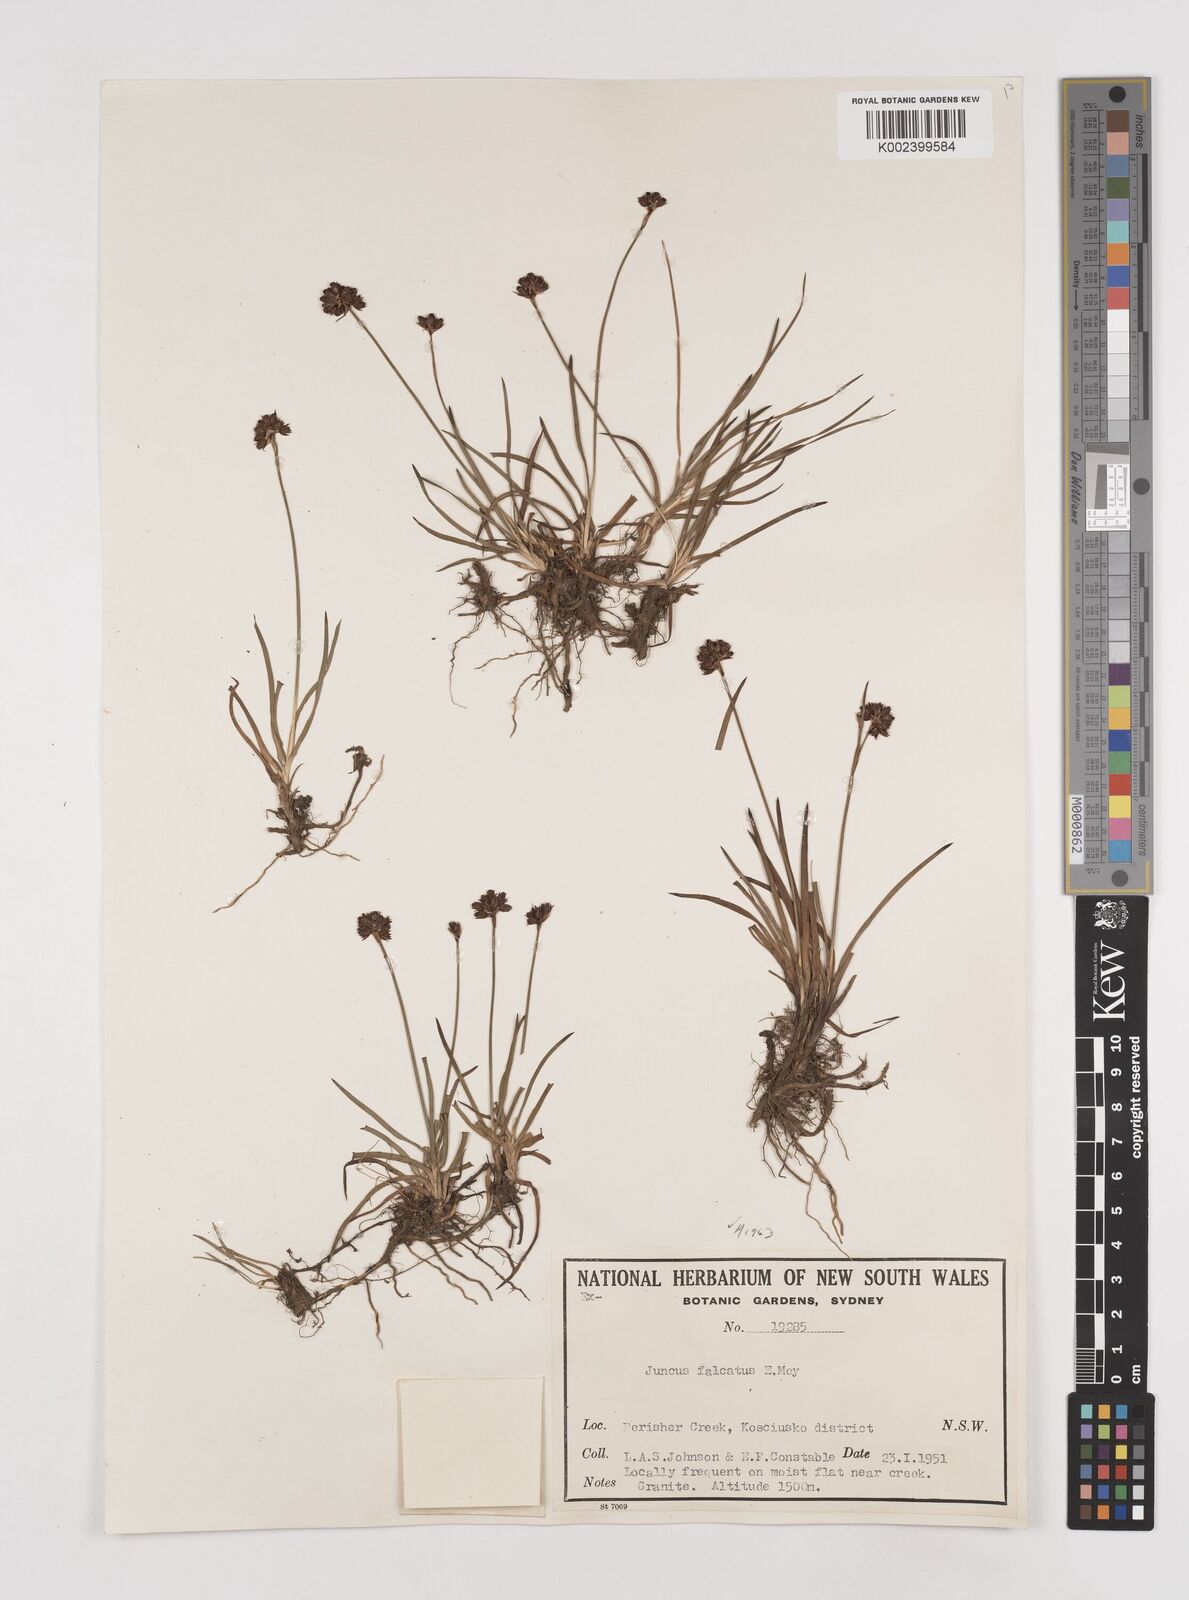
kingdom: Plantae
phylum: Tracheophyta
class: Liliopsida
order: Poales
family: Juncaceae
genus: Juncus
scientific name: Juncus falcatus
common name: Sickle-leaf rush
